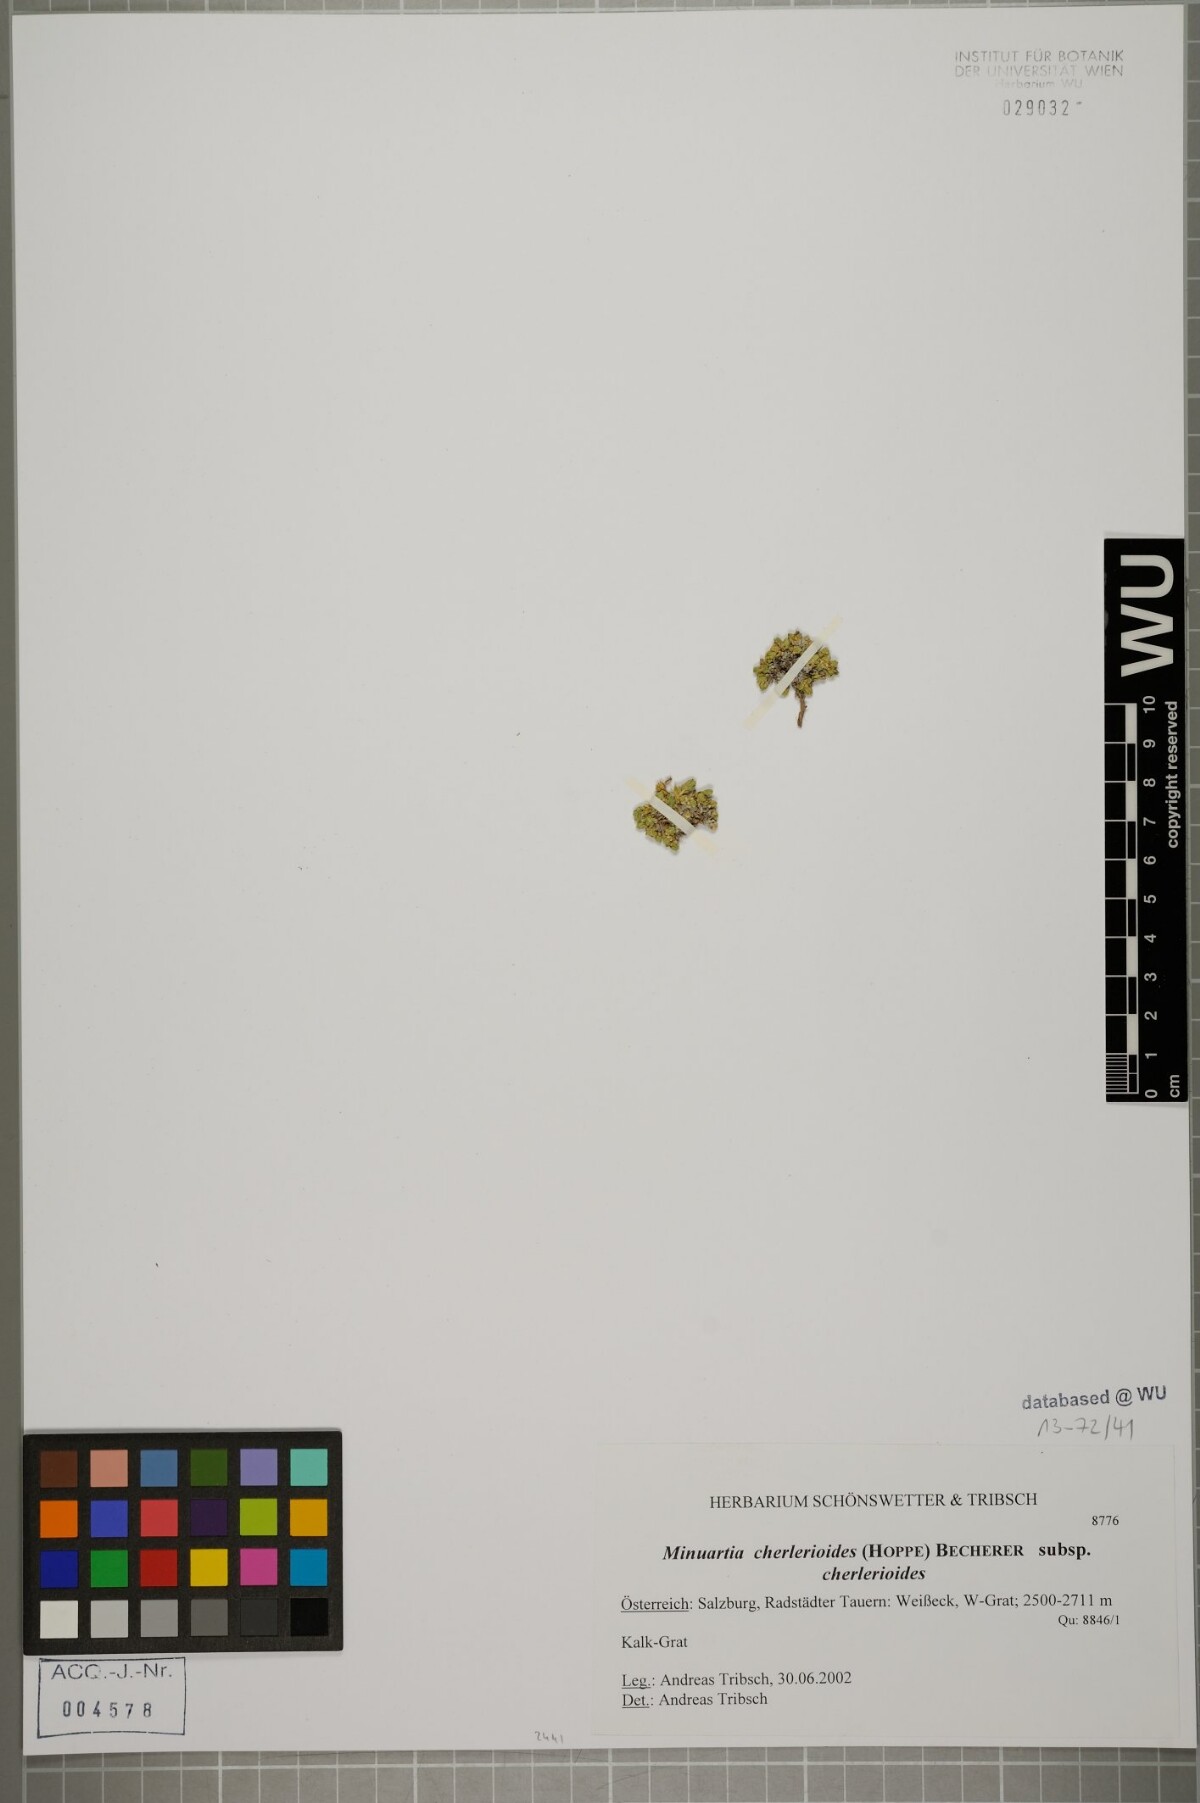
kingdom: Plantae
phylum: Tracheophyta
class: Magnoliopsida
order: Caryophyllales
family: Caryophyllaceae
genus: Facchinia
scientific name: Facchinia cherlerioides
